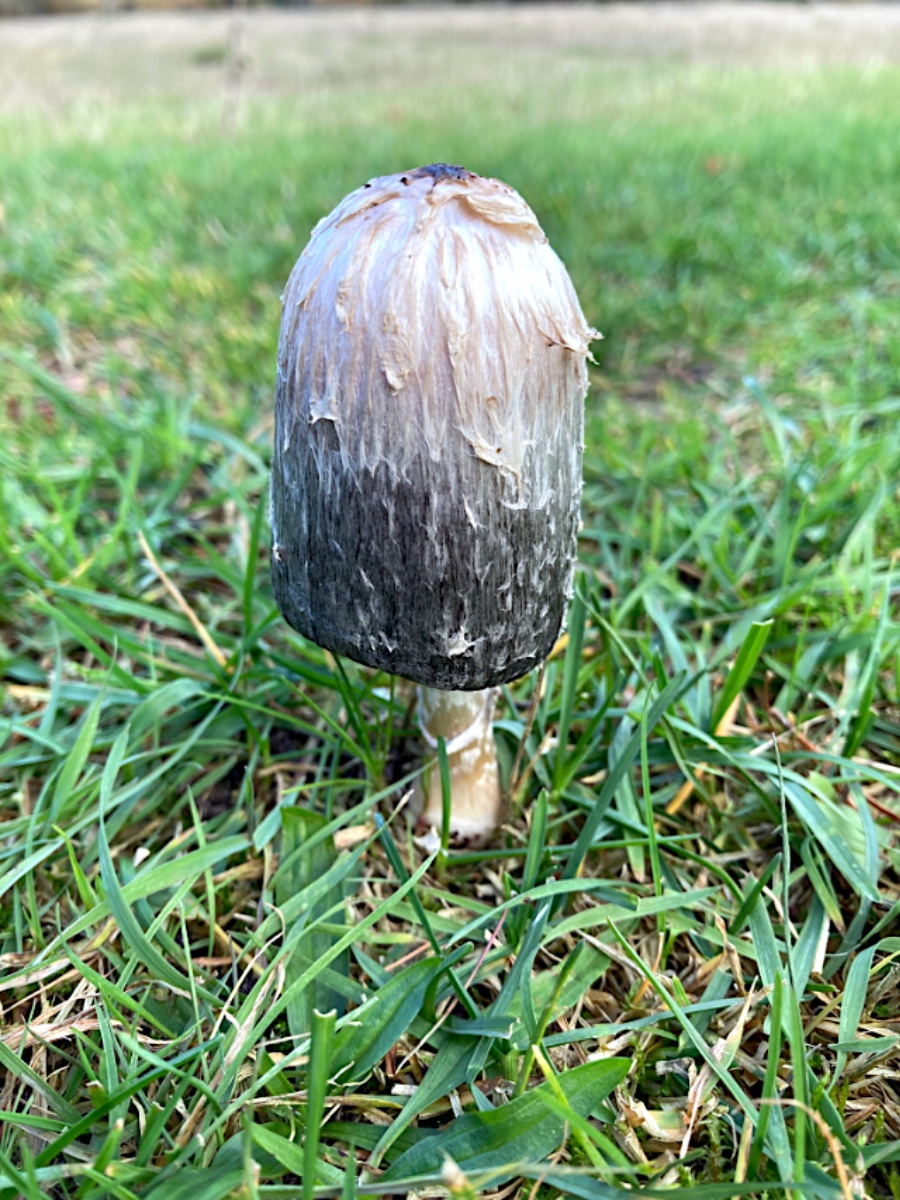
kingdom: Fungi
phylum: Basidiomycota
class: Agaricomycetes
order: Agaricales
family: Agaricaceae
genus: Coprinus
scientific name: Coprinus comatus
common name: stor parykhat
